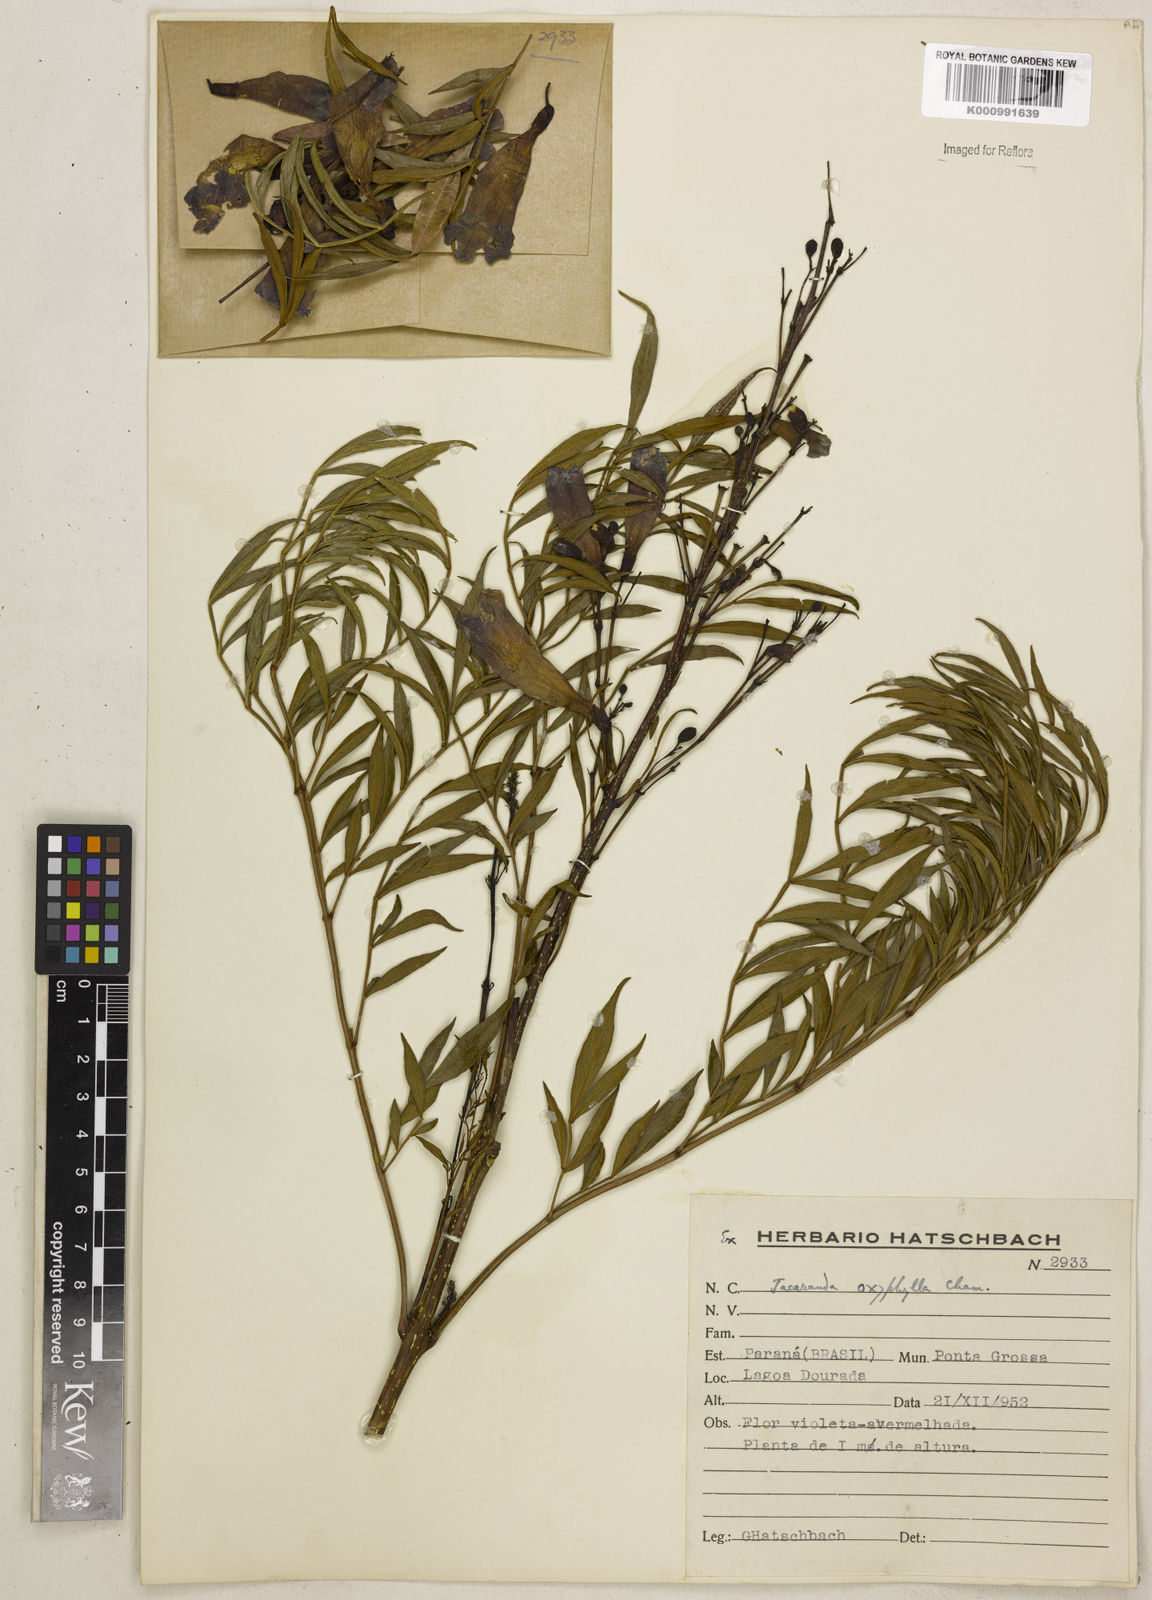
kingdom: Plantae
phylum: Tracheophyta
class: Magnoliopsida
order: Lamiales
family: Bignoniaceae
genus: Jacaranda
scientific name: Jacaranda caroba
